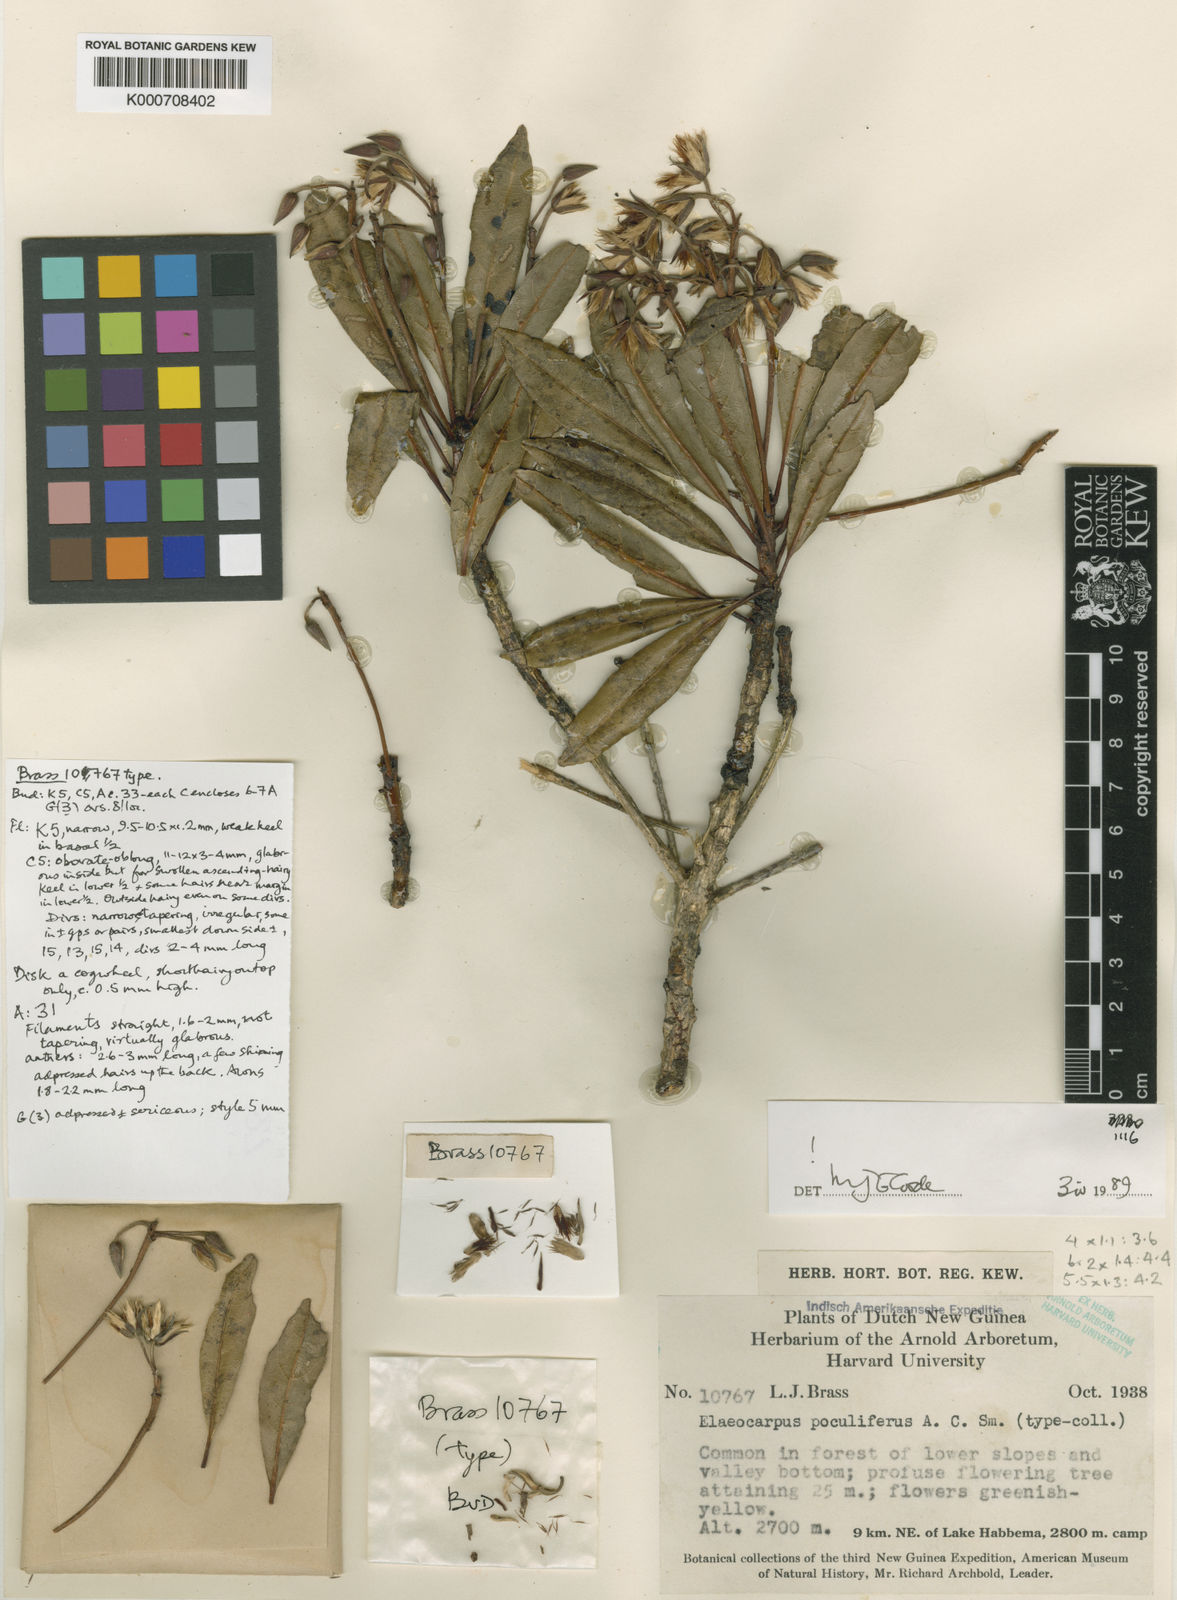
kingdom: Plantae
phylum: Tracheophyta
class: Magnoliopsida
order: Oxalidales
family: Elaeocarpaceae
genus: Elaeocarpus
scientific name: Elaeocarpus poculifer
